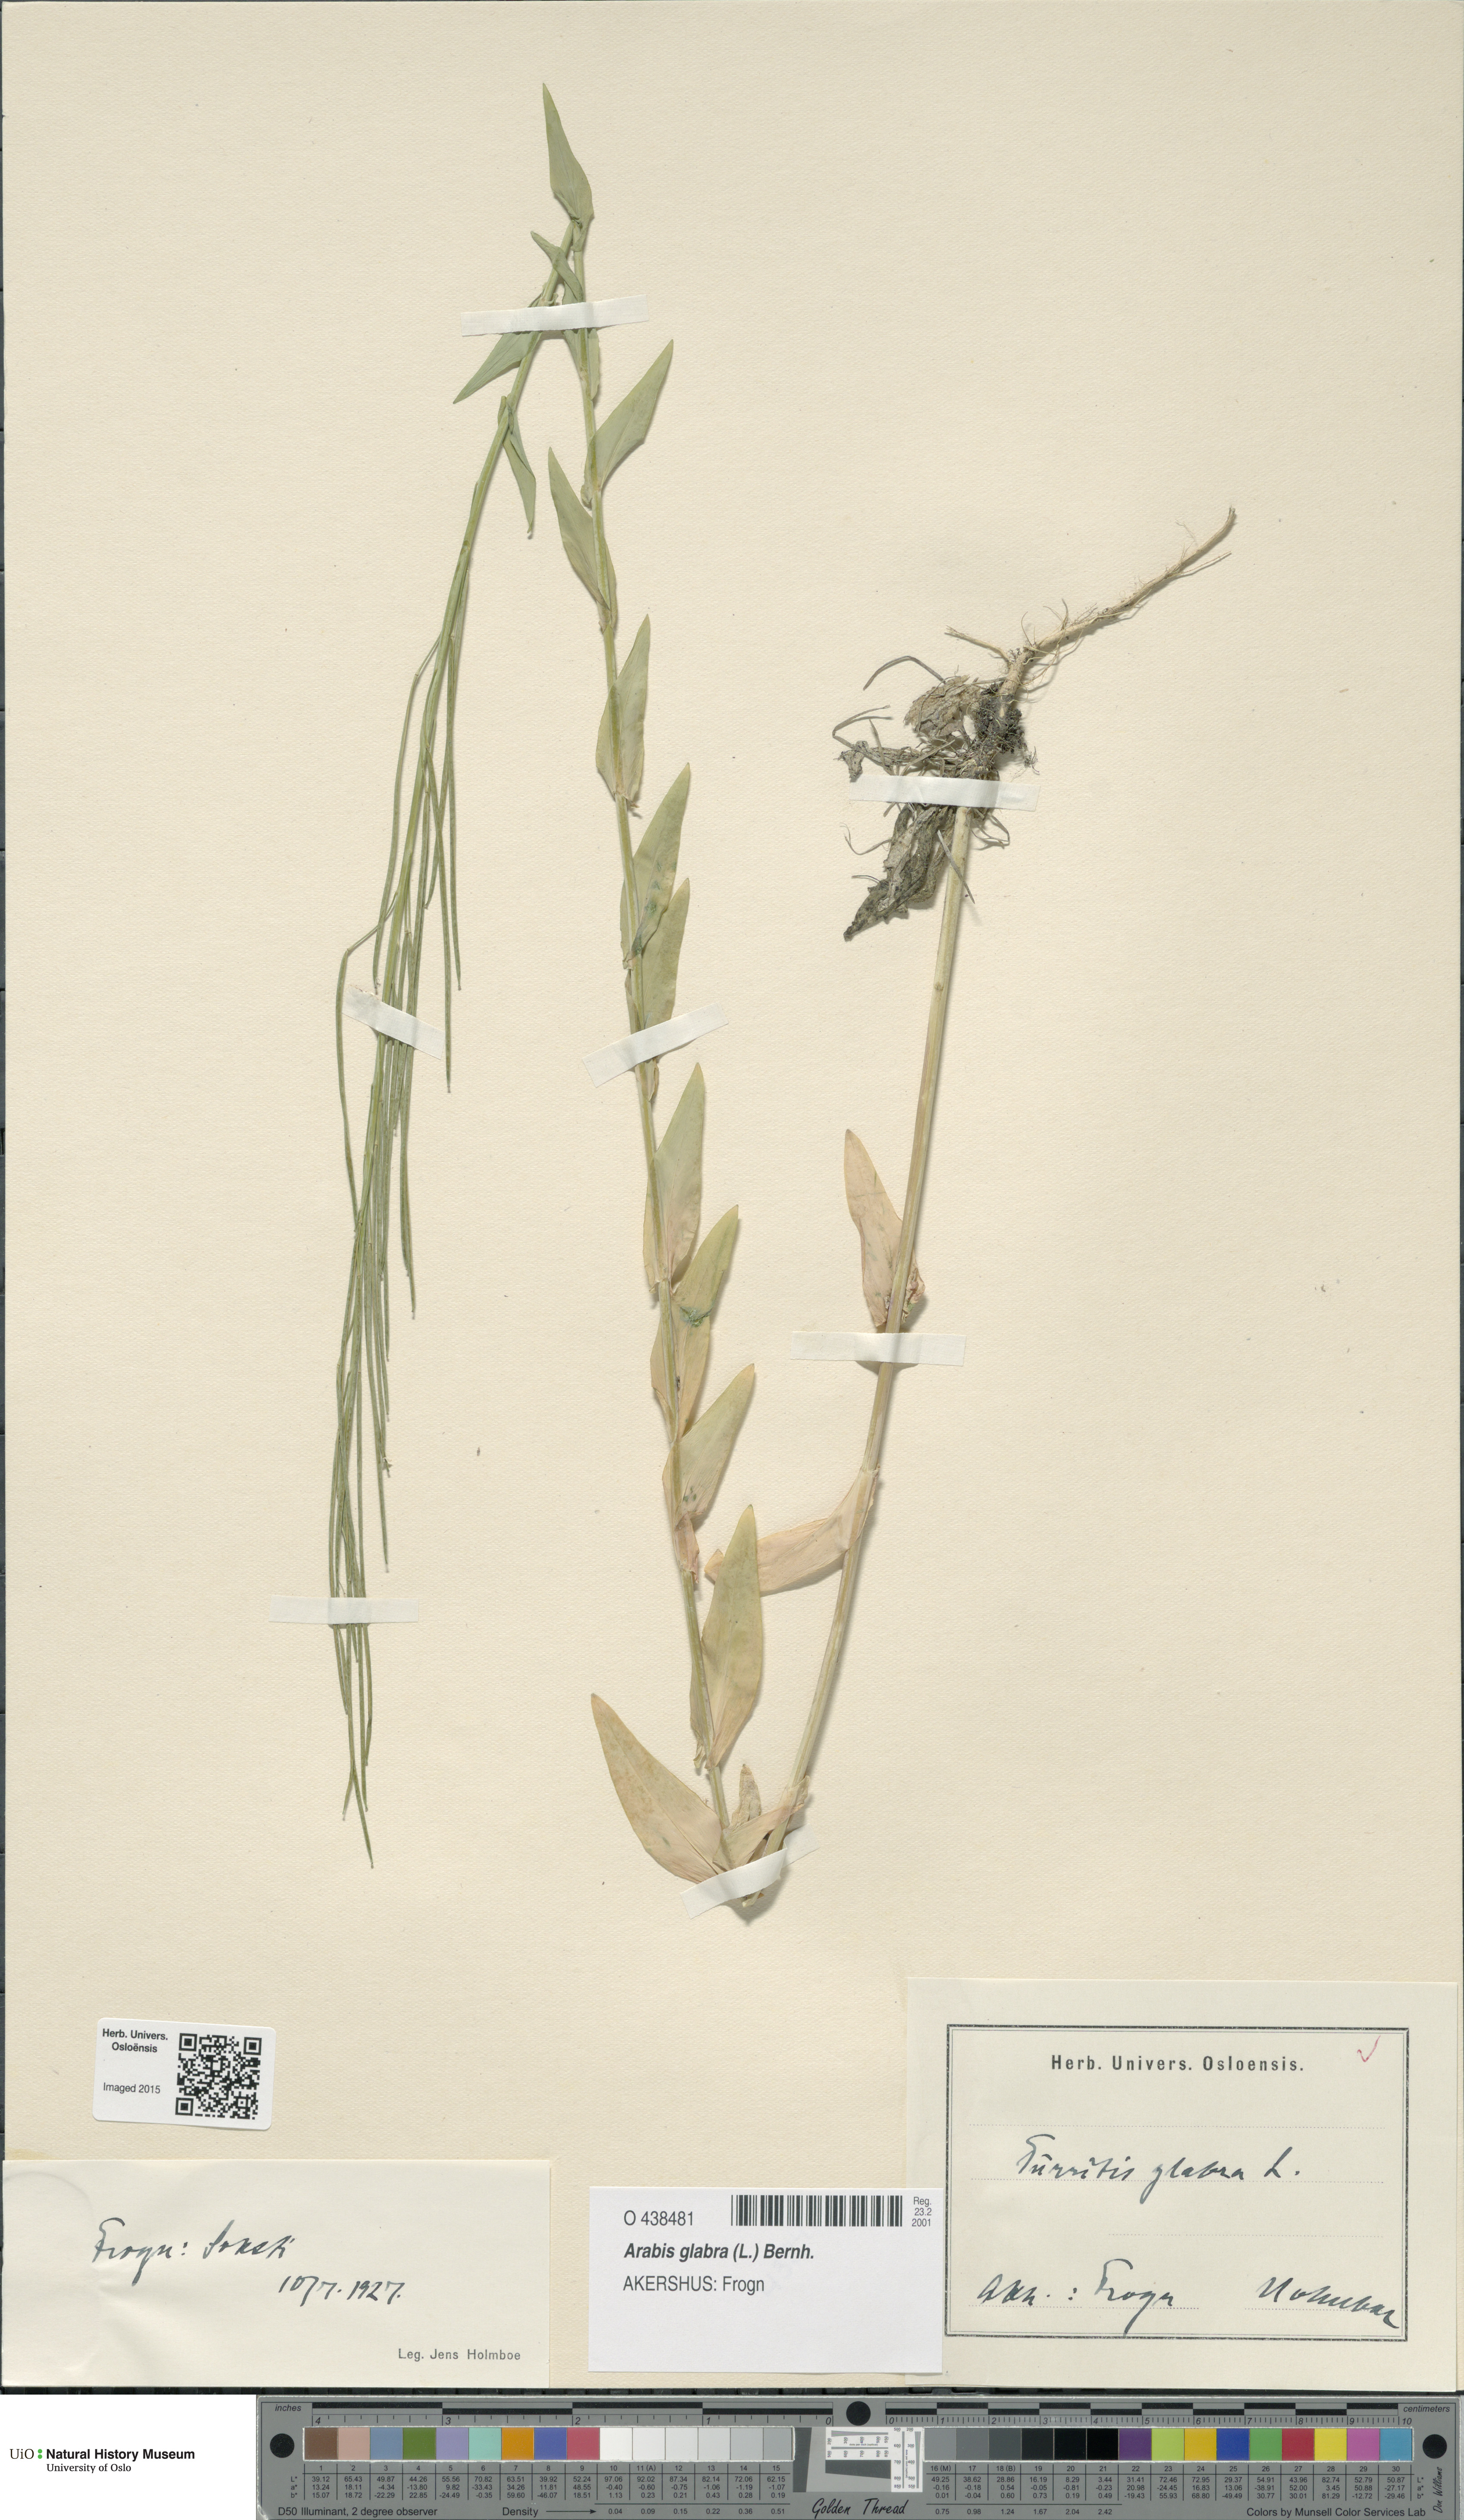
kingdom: Plantae
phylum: Tracheophyta
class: Magnoliopsida
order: Brassicales
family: Brassicaceae
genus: Turritis
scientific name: Turritis glabra
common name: Tower rockcress
